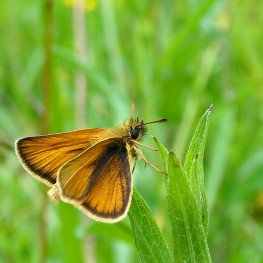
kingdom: Animalia
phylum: Arthropoda
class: Insecta
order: Lepidoptera
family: Hesperiidae
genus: Thymelicus
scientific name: Thymelicus lineola
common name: European Skipper
